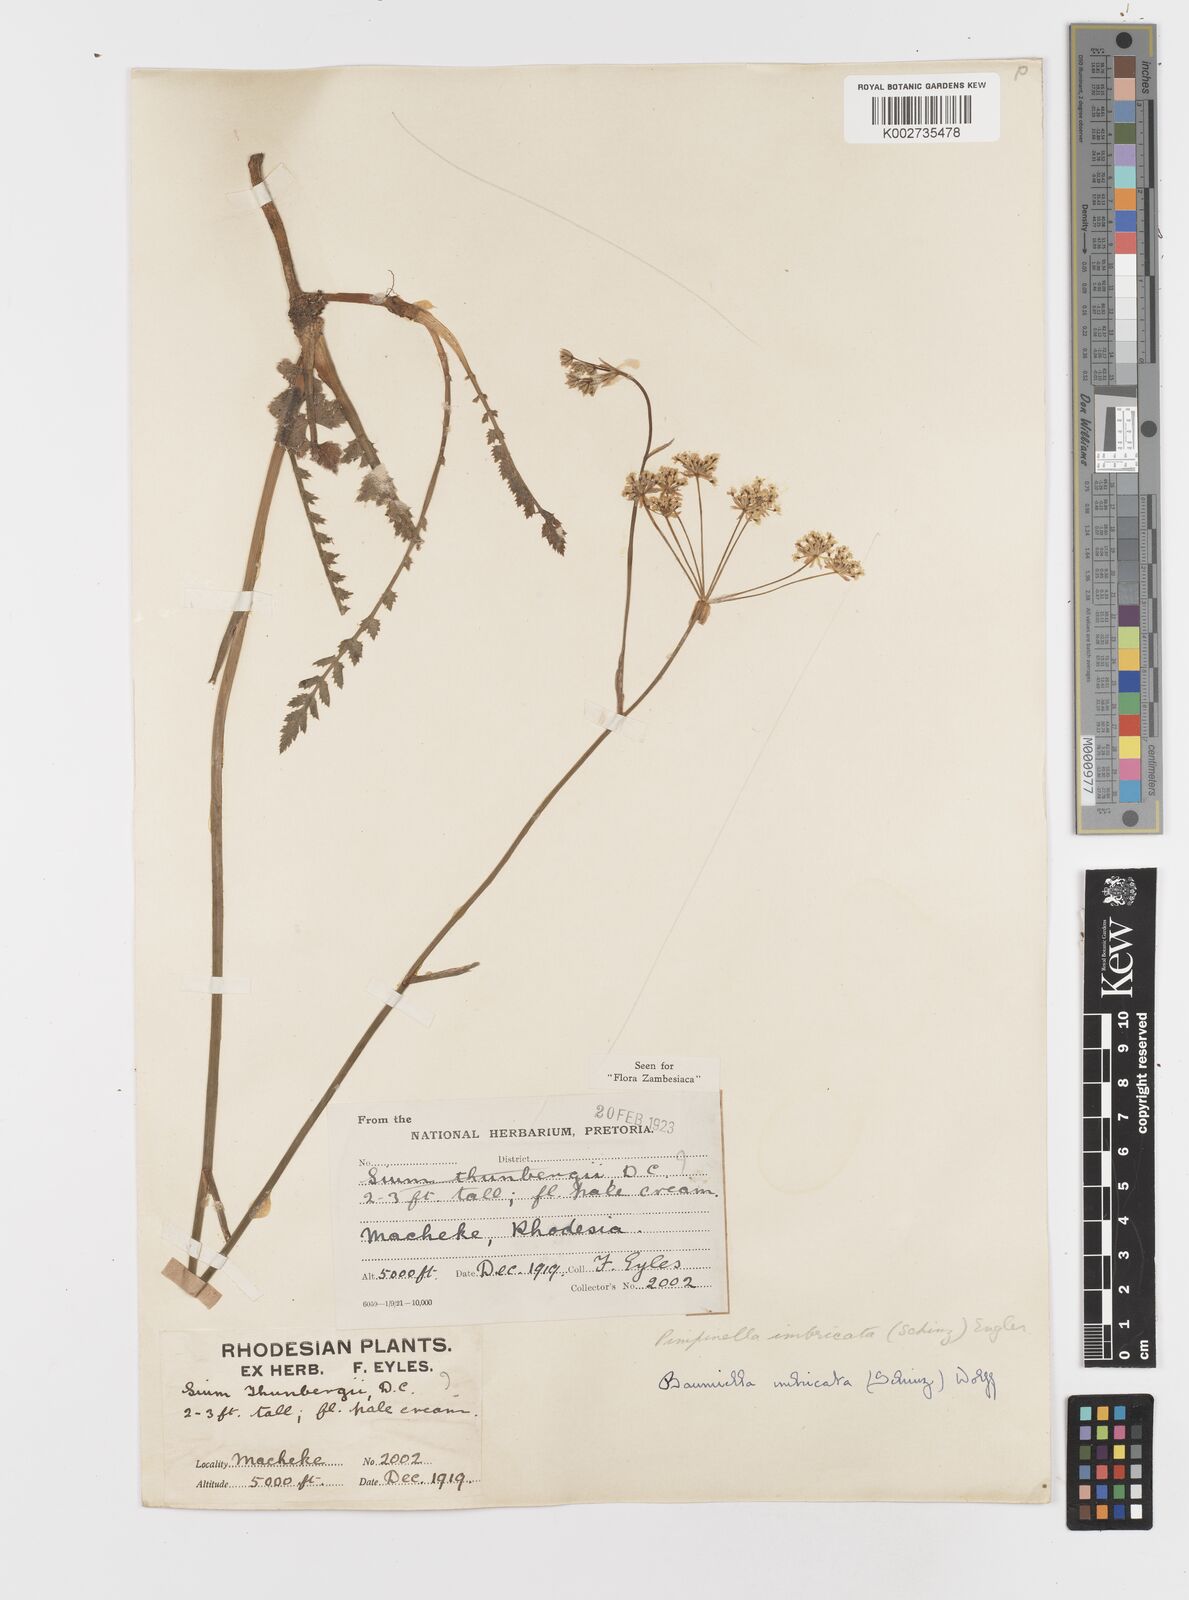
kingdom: Plantae
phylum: Tracheophyta
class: Magnoliopsida
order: Apiales
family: Apiaceae
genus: Berula
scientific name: Berula imbricata
